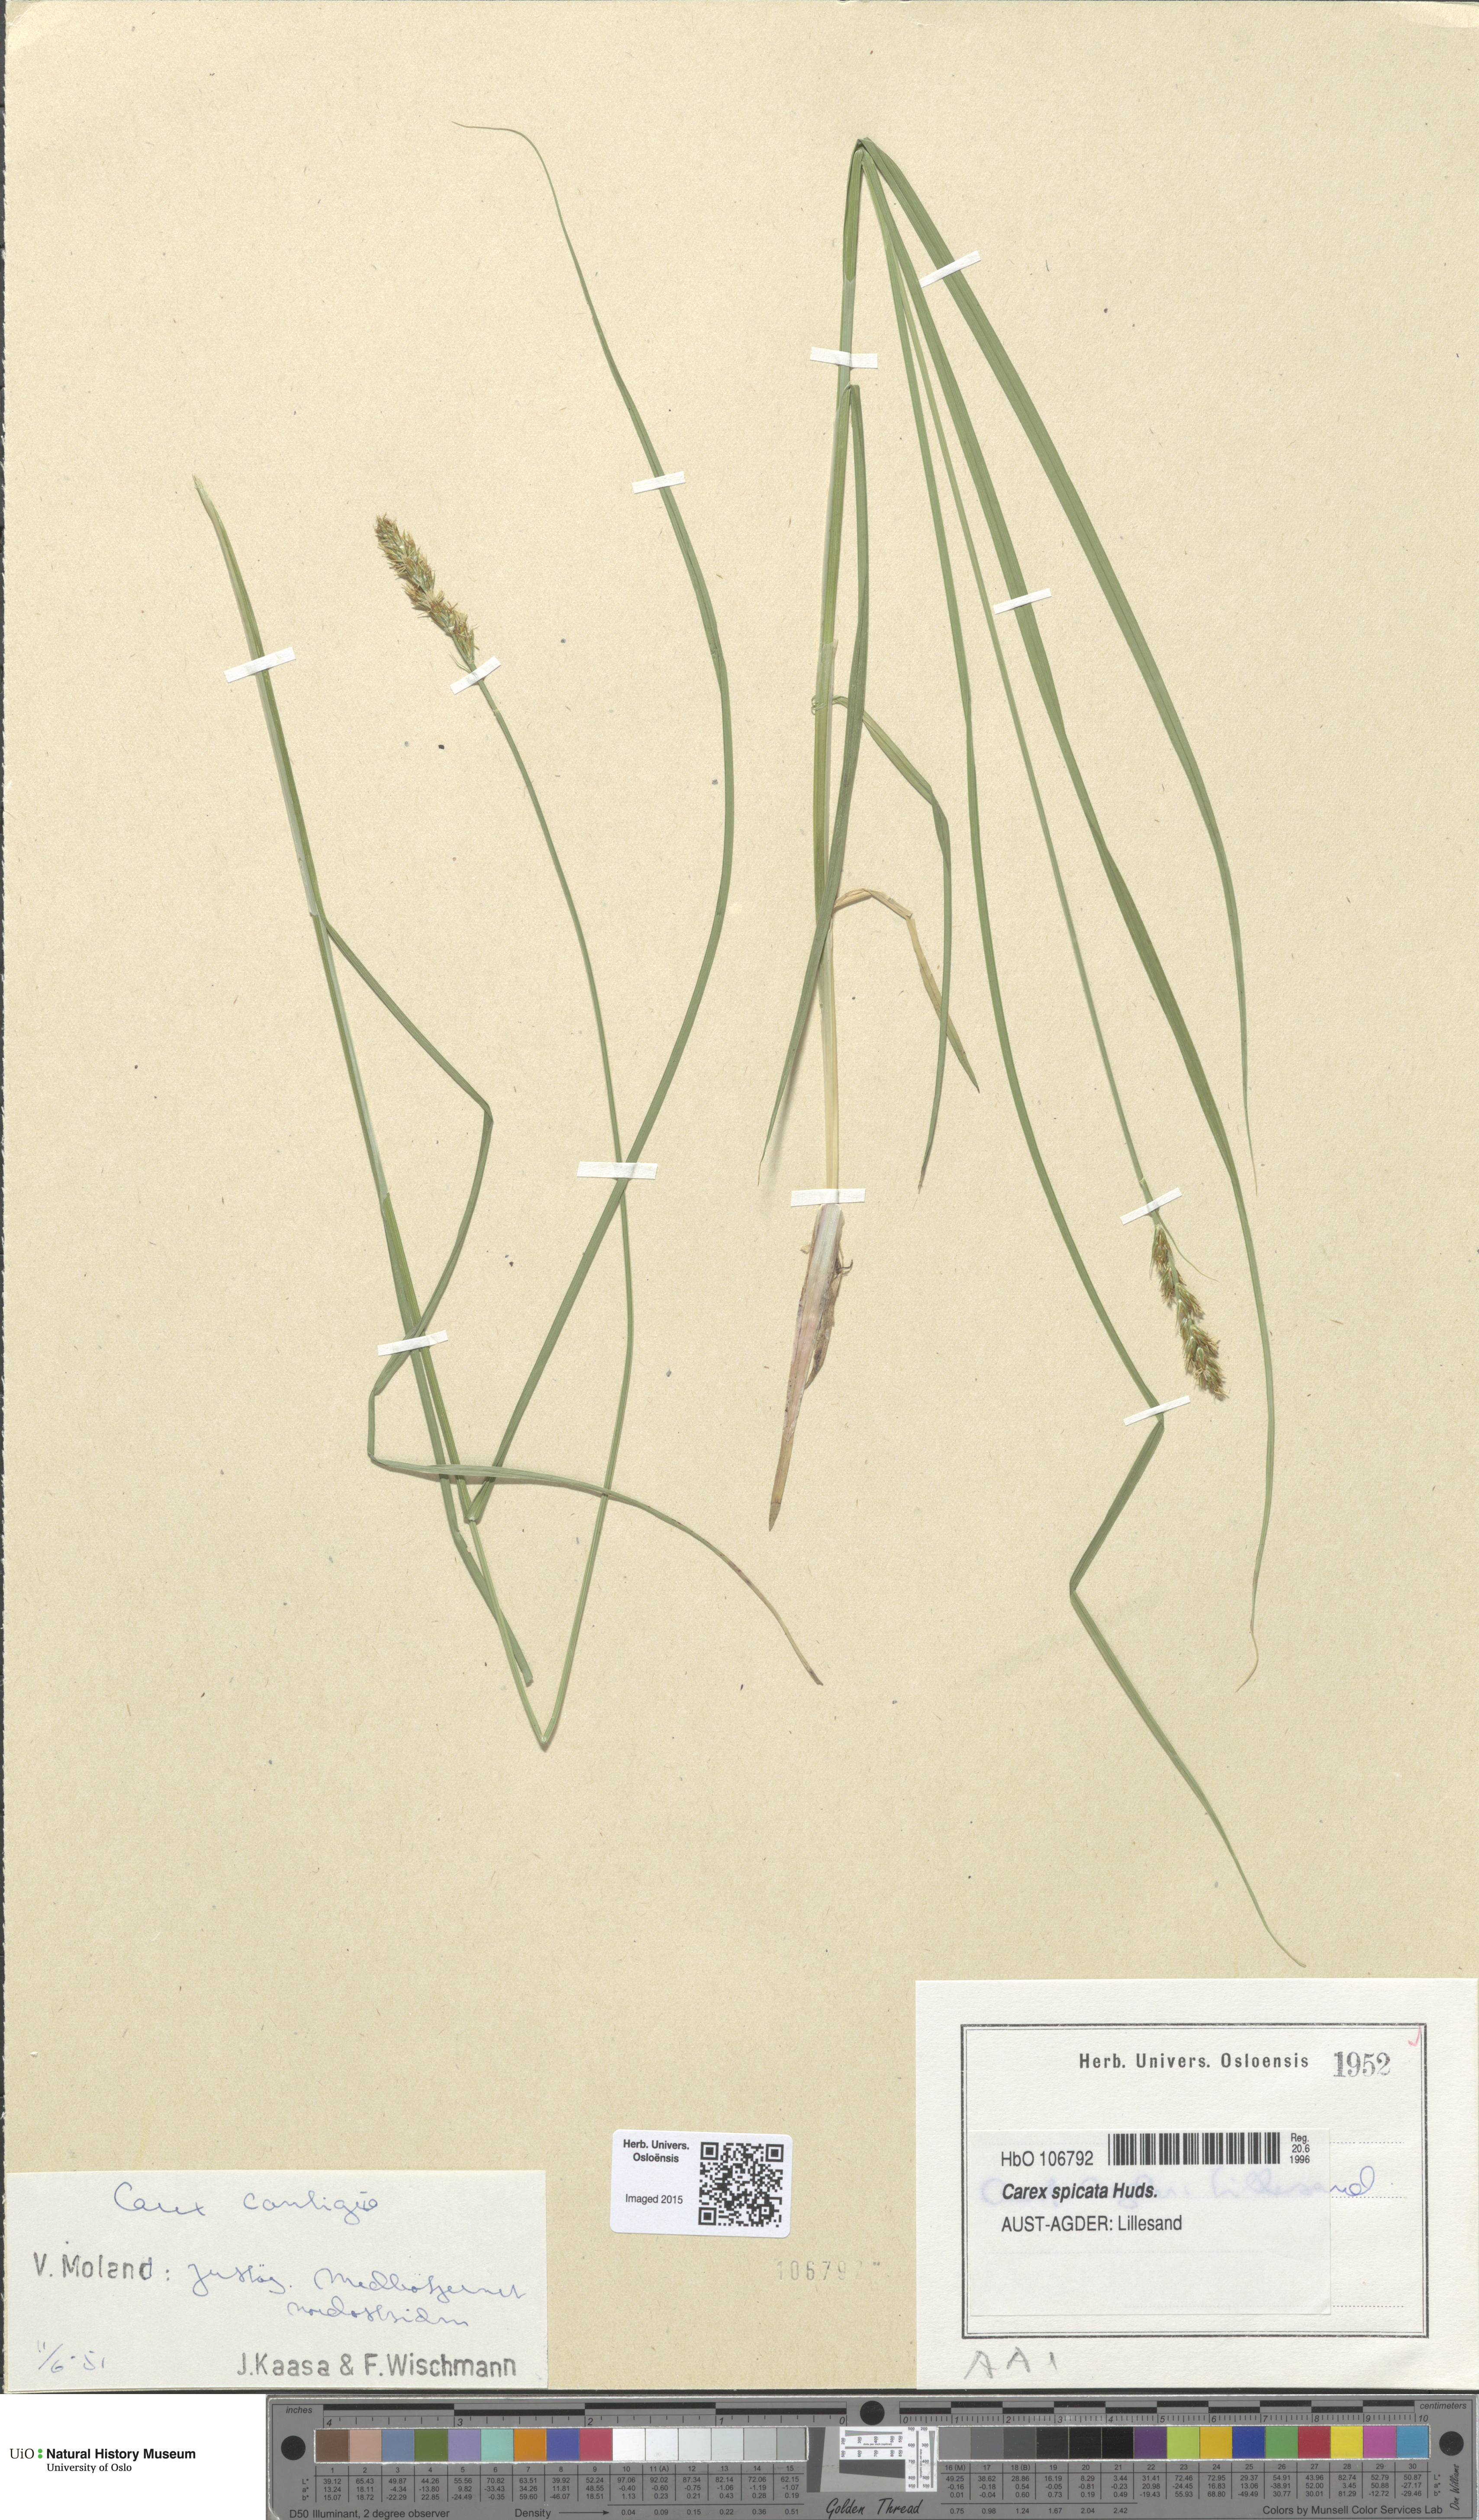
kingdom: Plantae
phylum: Tracheophyta
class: Liliopsida
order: Poales
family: Cyperaceae
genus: Carex
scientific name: Carex spicata
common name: Spiked sedge
